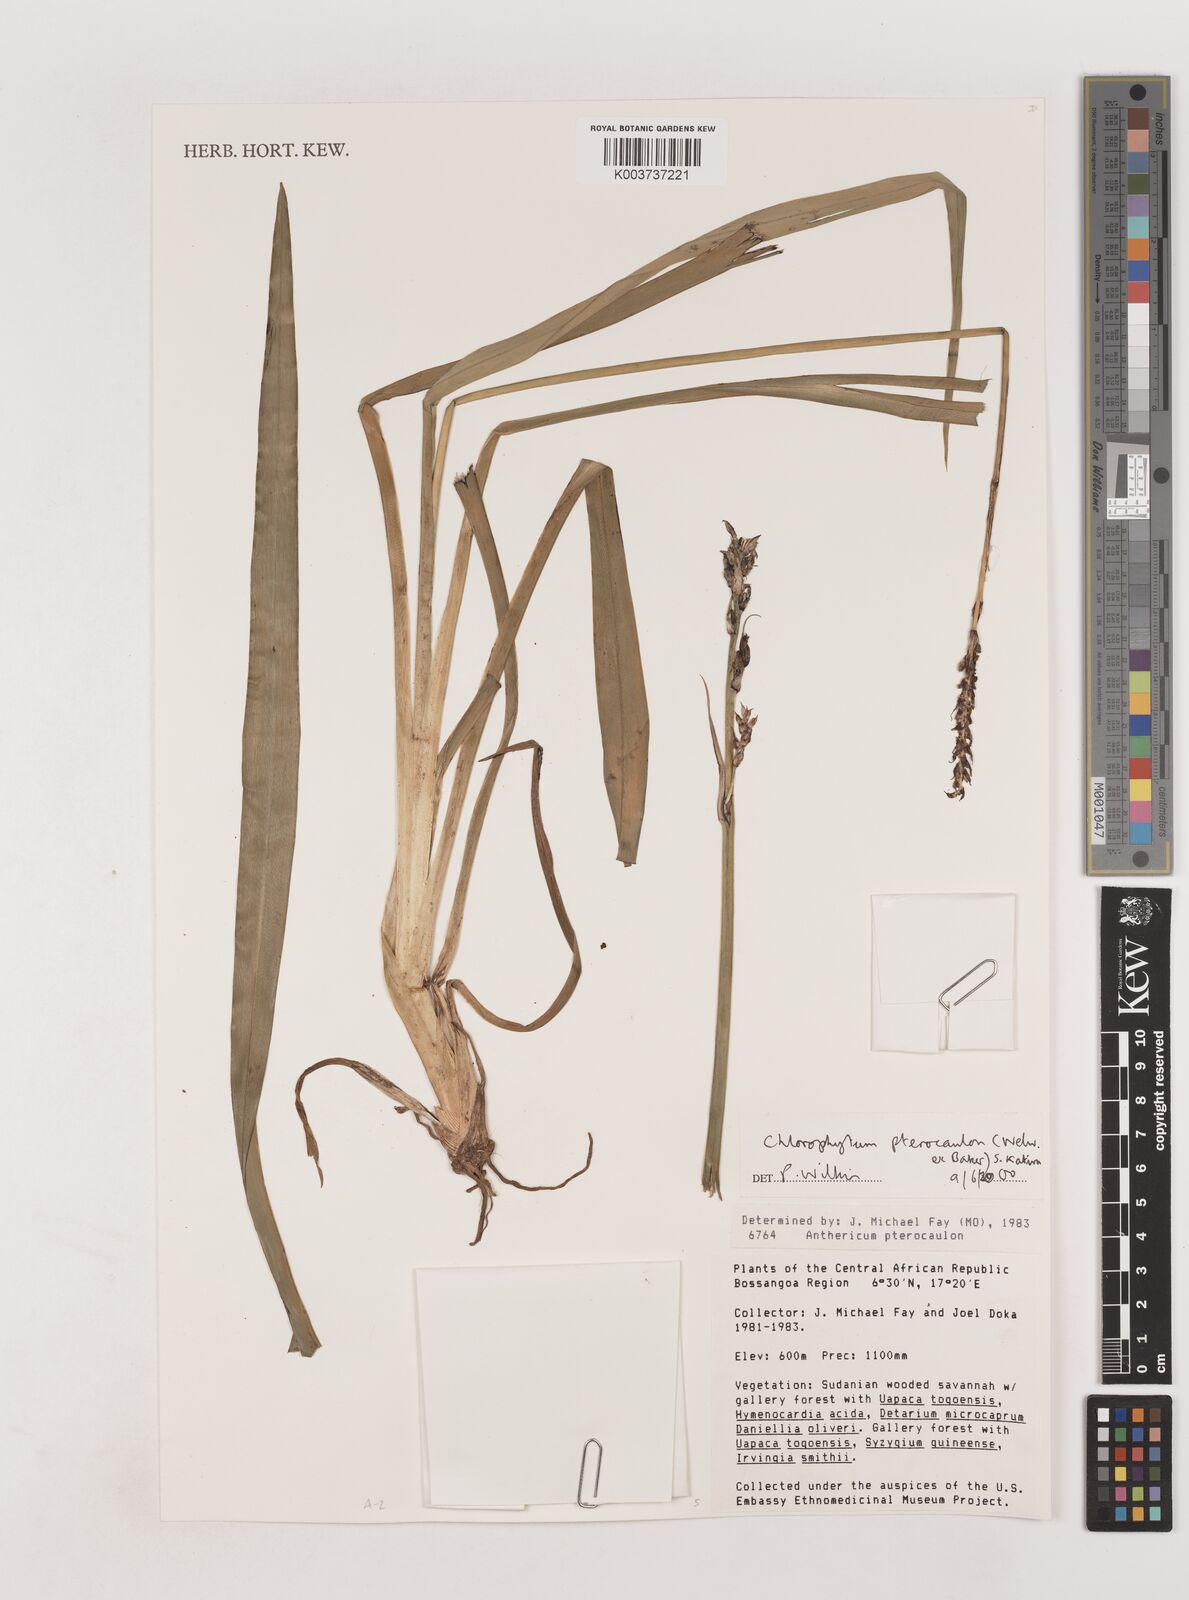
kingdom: Plantae
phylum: Tracheophyta
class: Liliopsida
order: Asparagales
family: Asparagaceae
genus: Chlorophytum
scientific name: Chlorophytum cameronii
